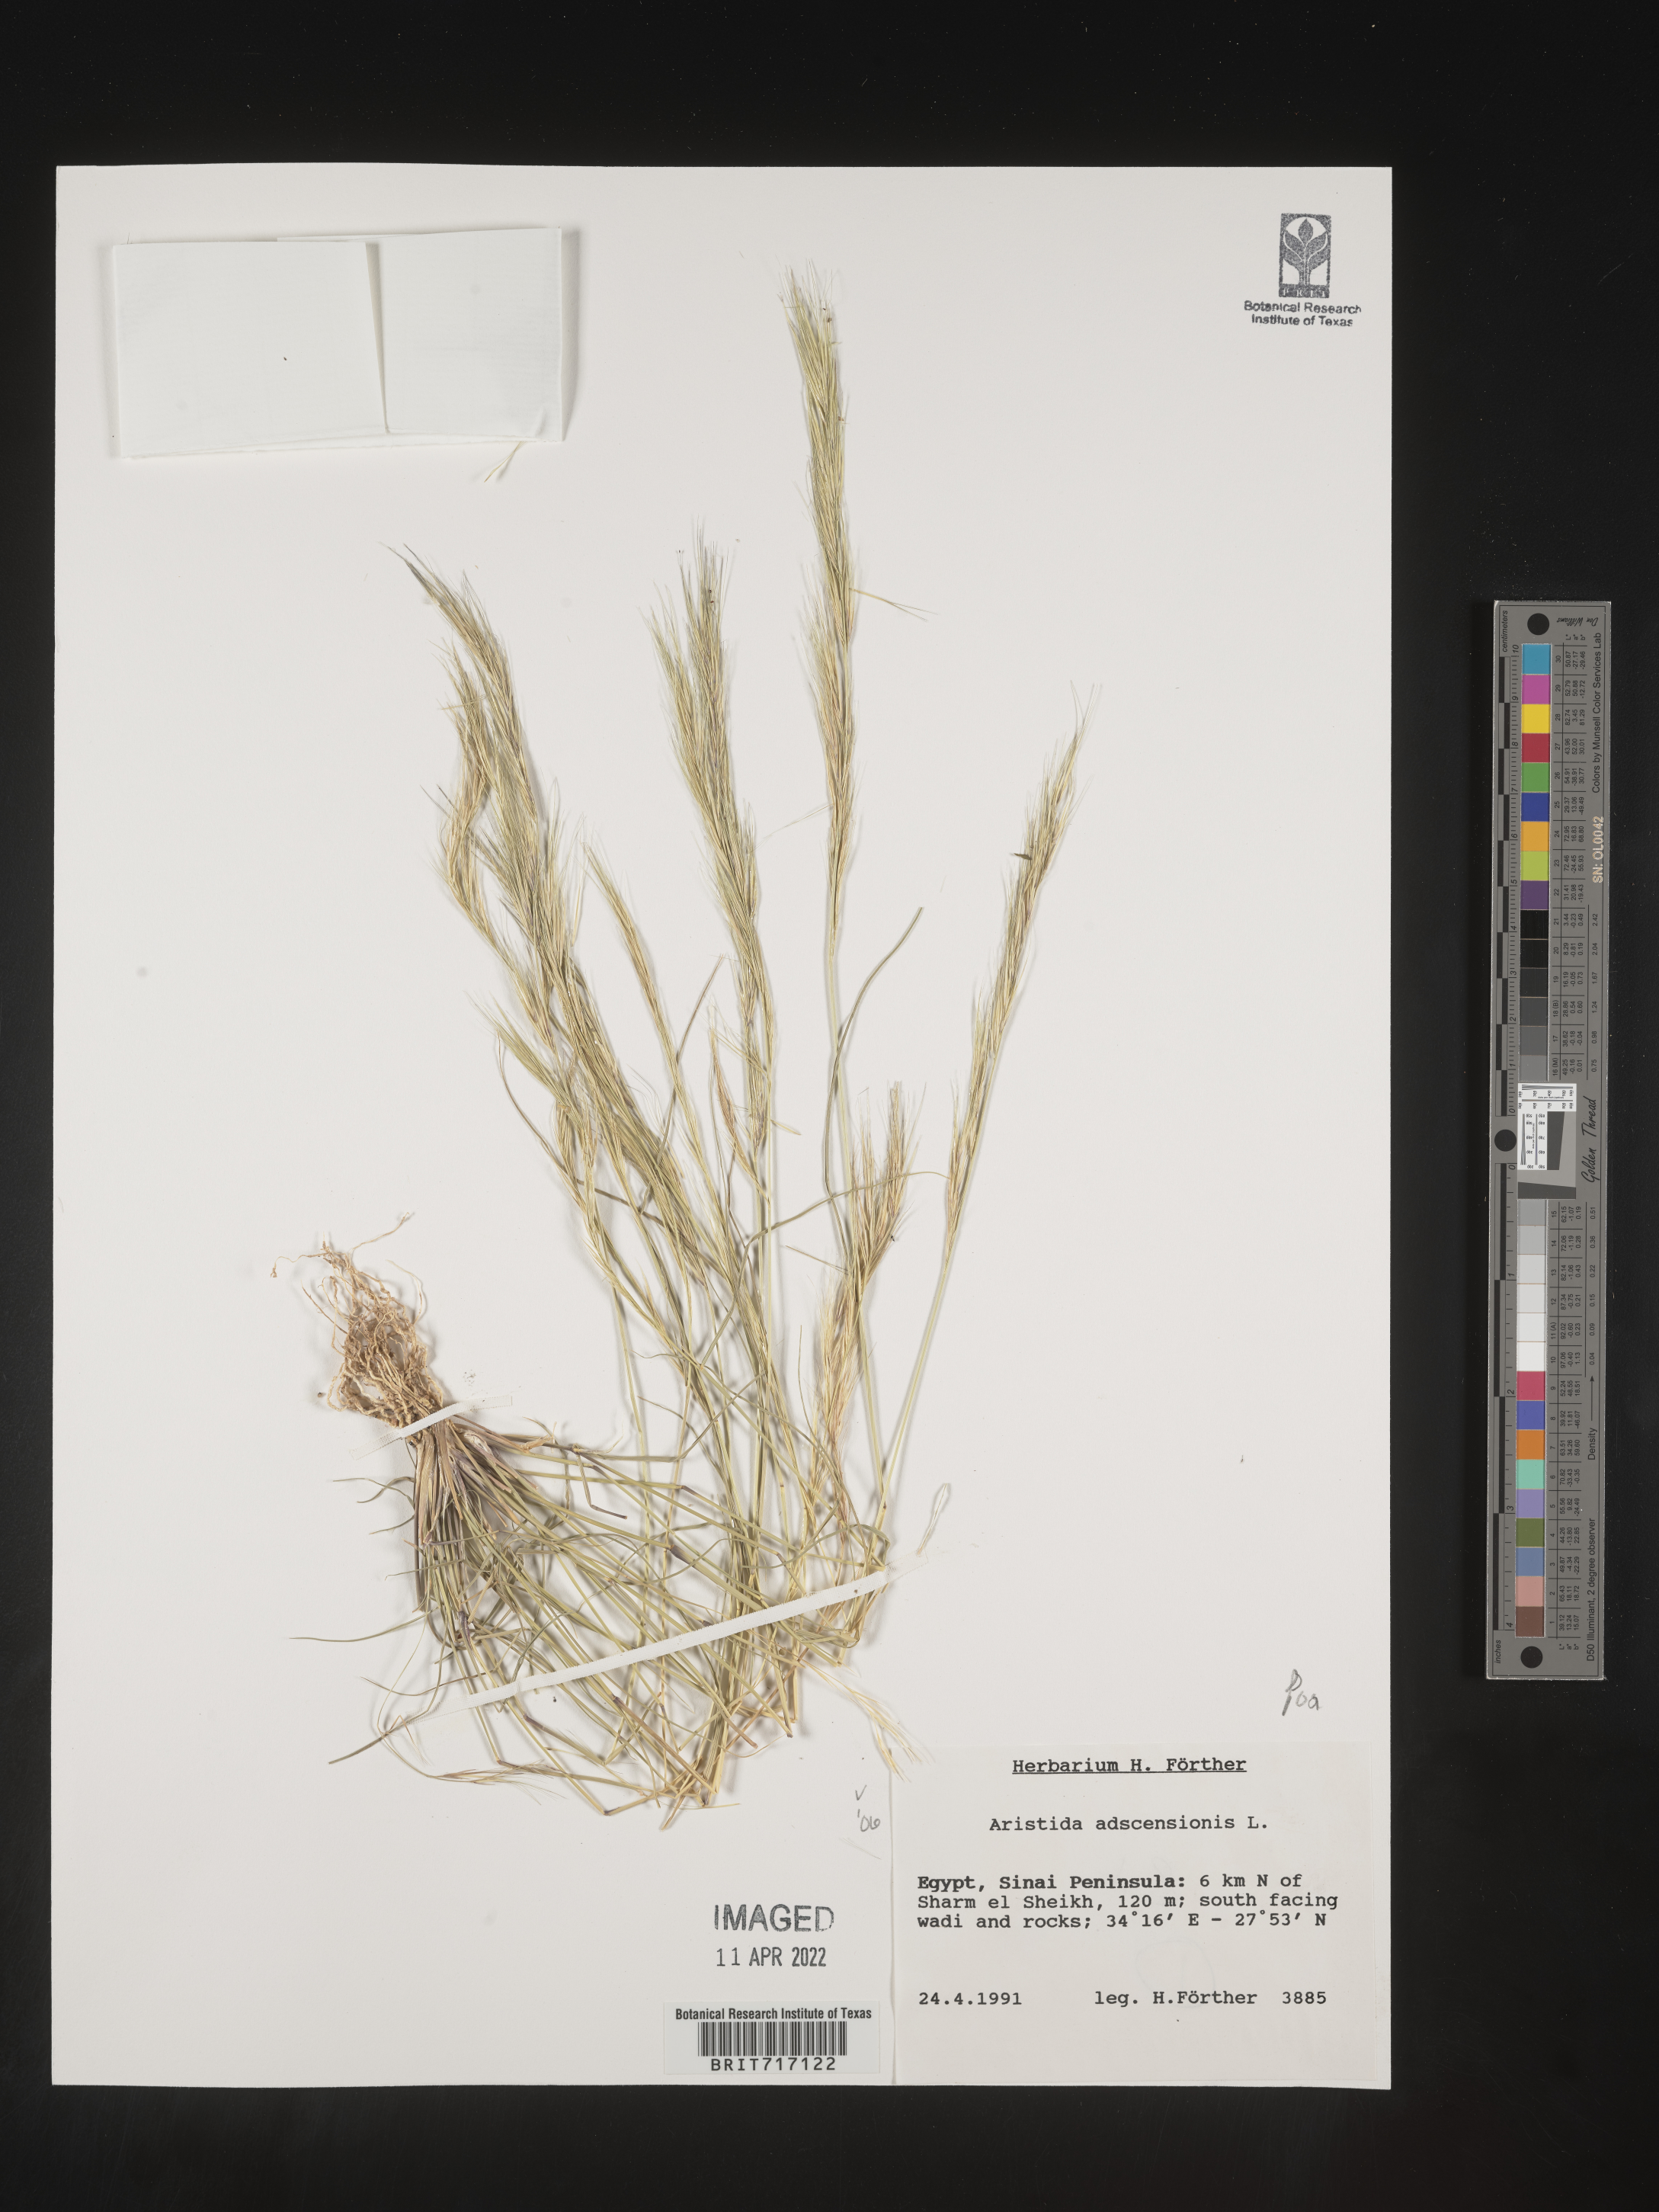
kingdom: Plantae
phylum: Tracheophyta
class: Liliopsida
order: Poales
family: Poaceae
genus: Aristida
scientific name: Aristida
